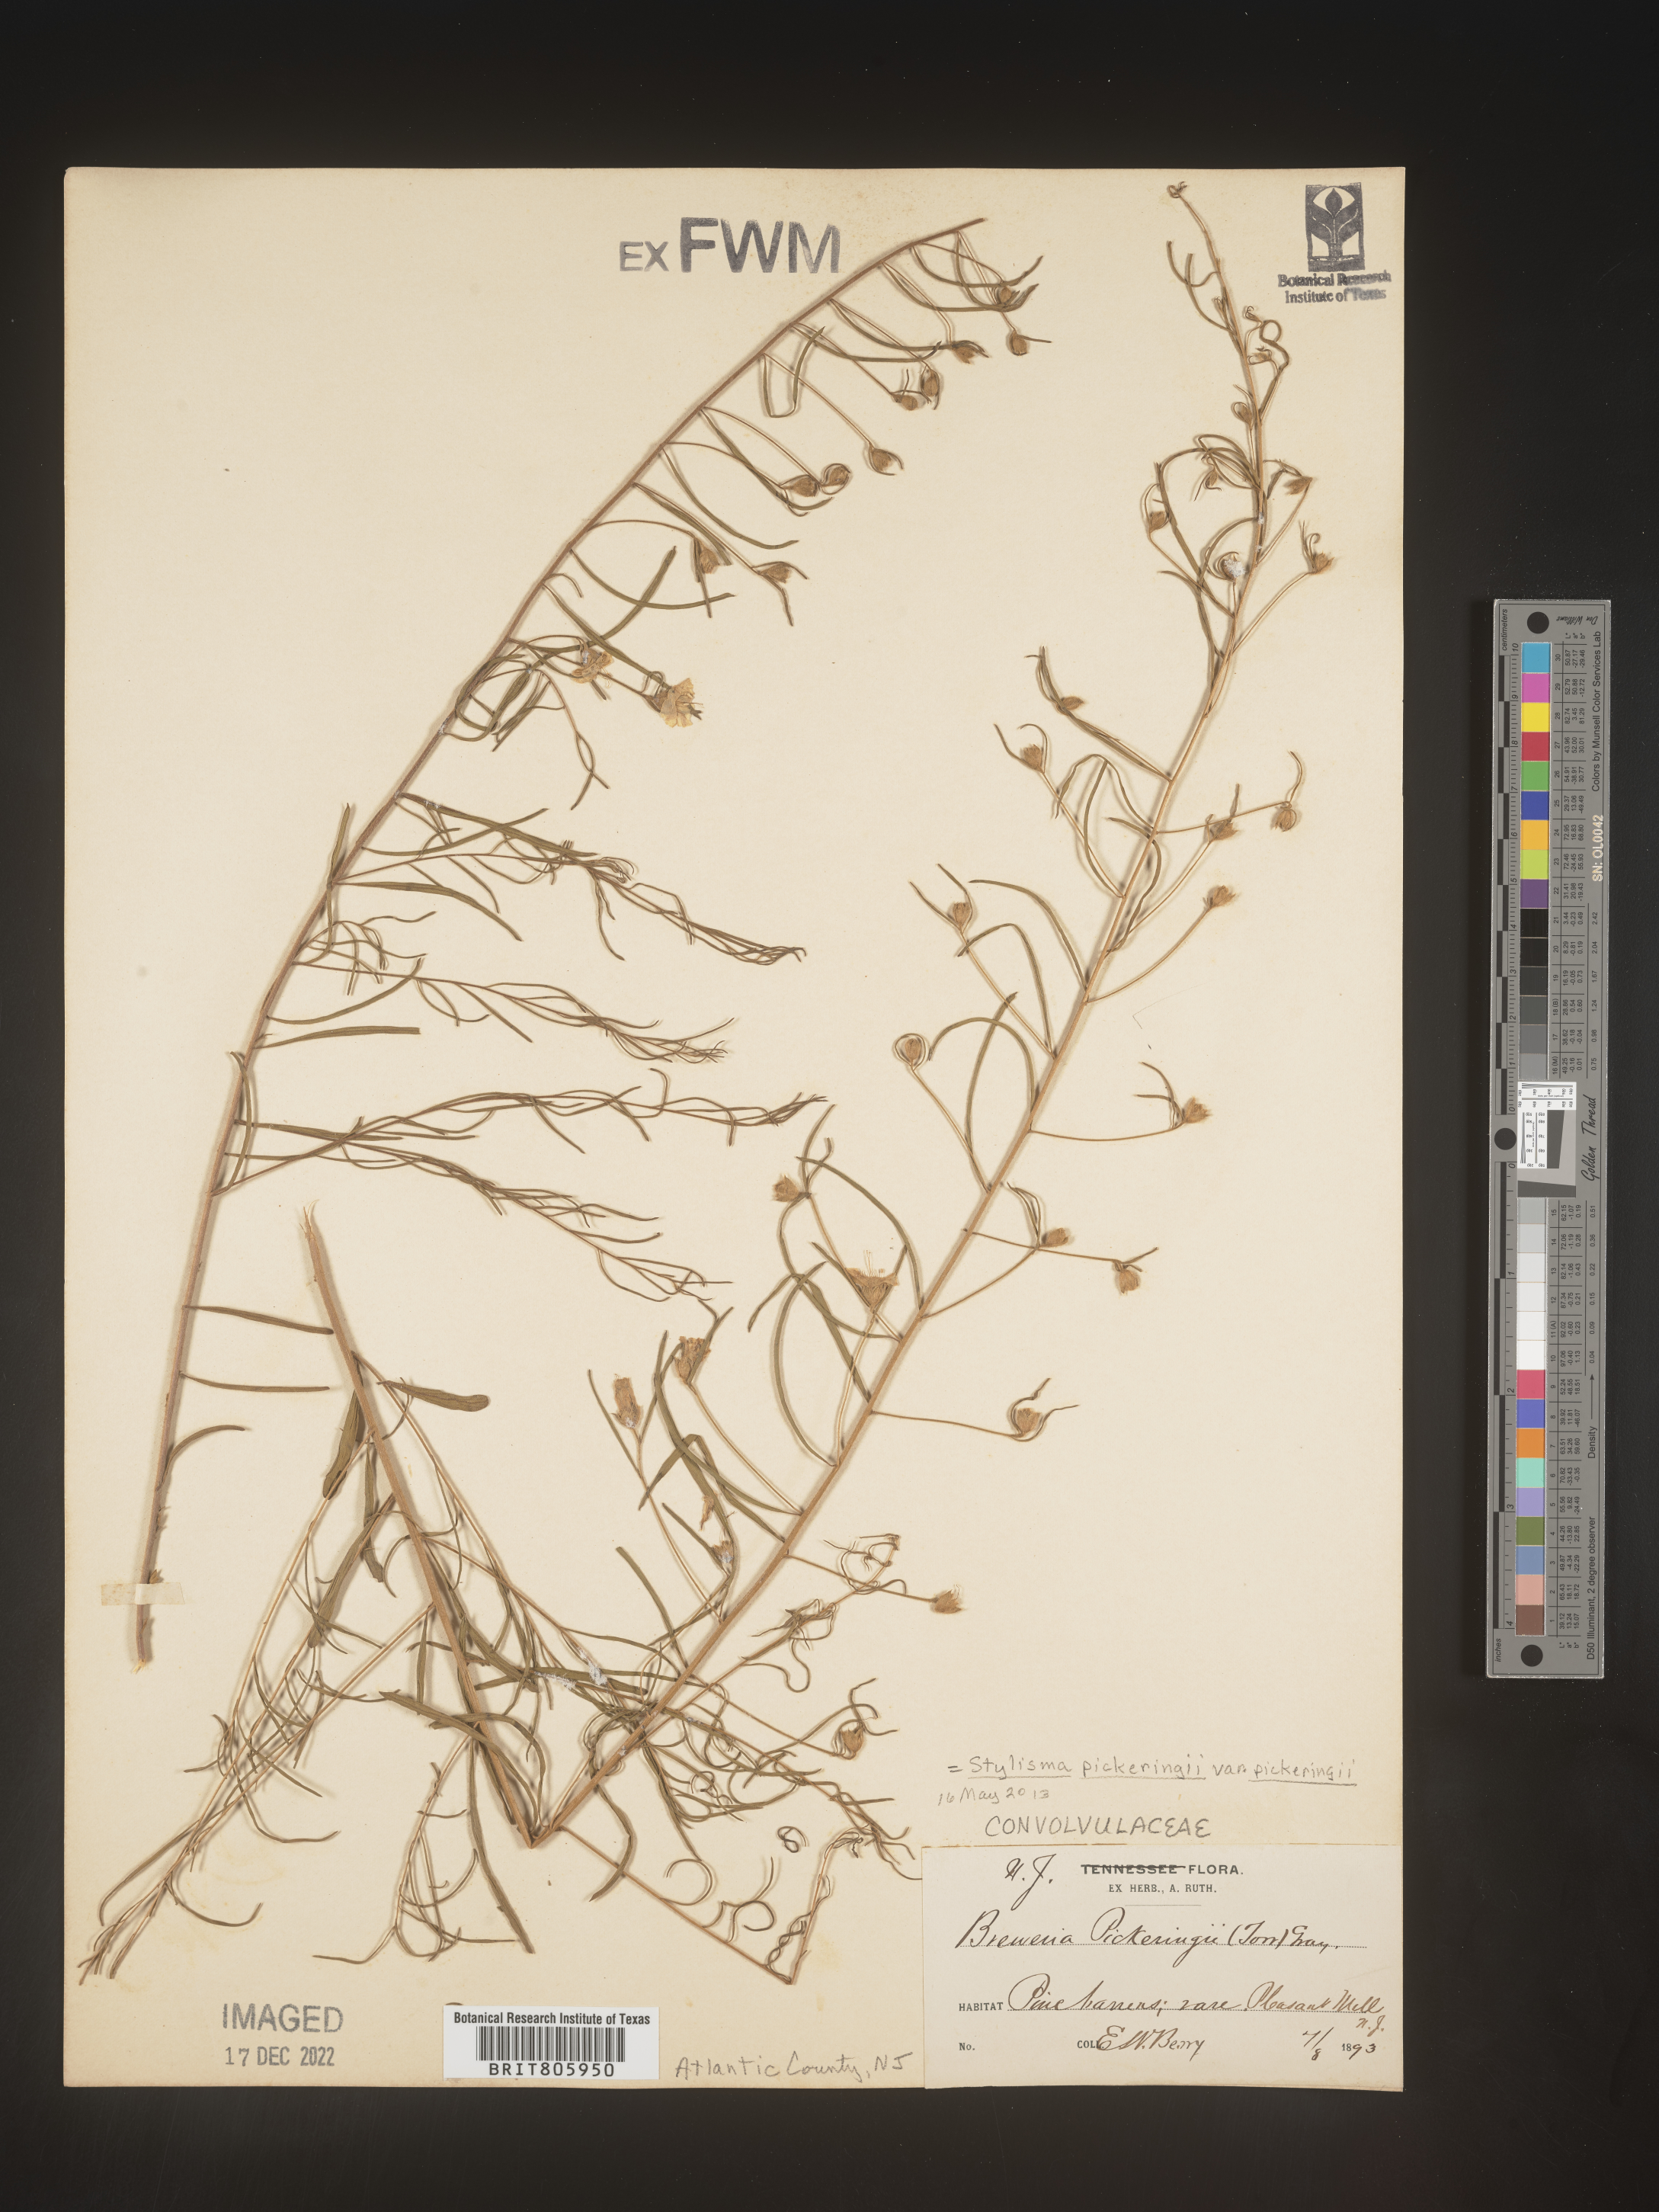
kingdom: Plantae
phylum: Tracheophyta
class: Magnoliopsida
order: Solanales
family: Convolvulaceae
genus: Stylisma
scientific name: Stylisma
